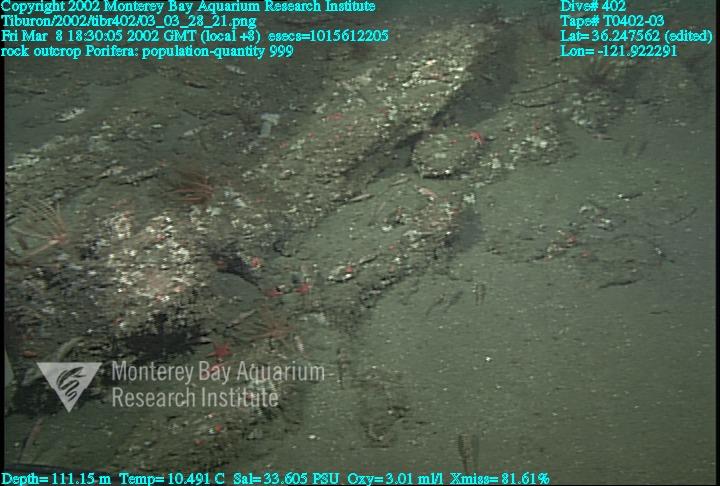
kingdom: Animalia
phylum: Porifera
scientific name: Porifera
